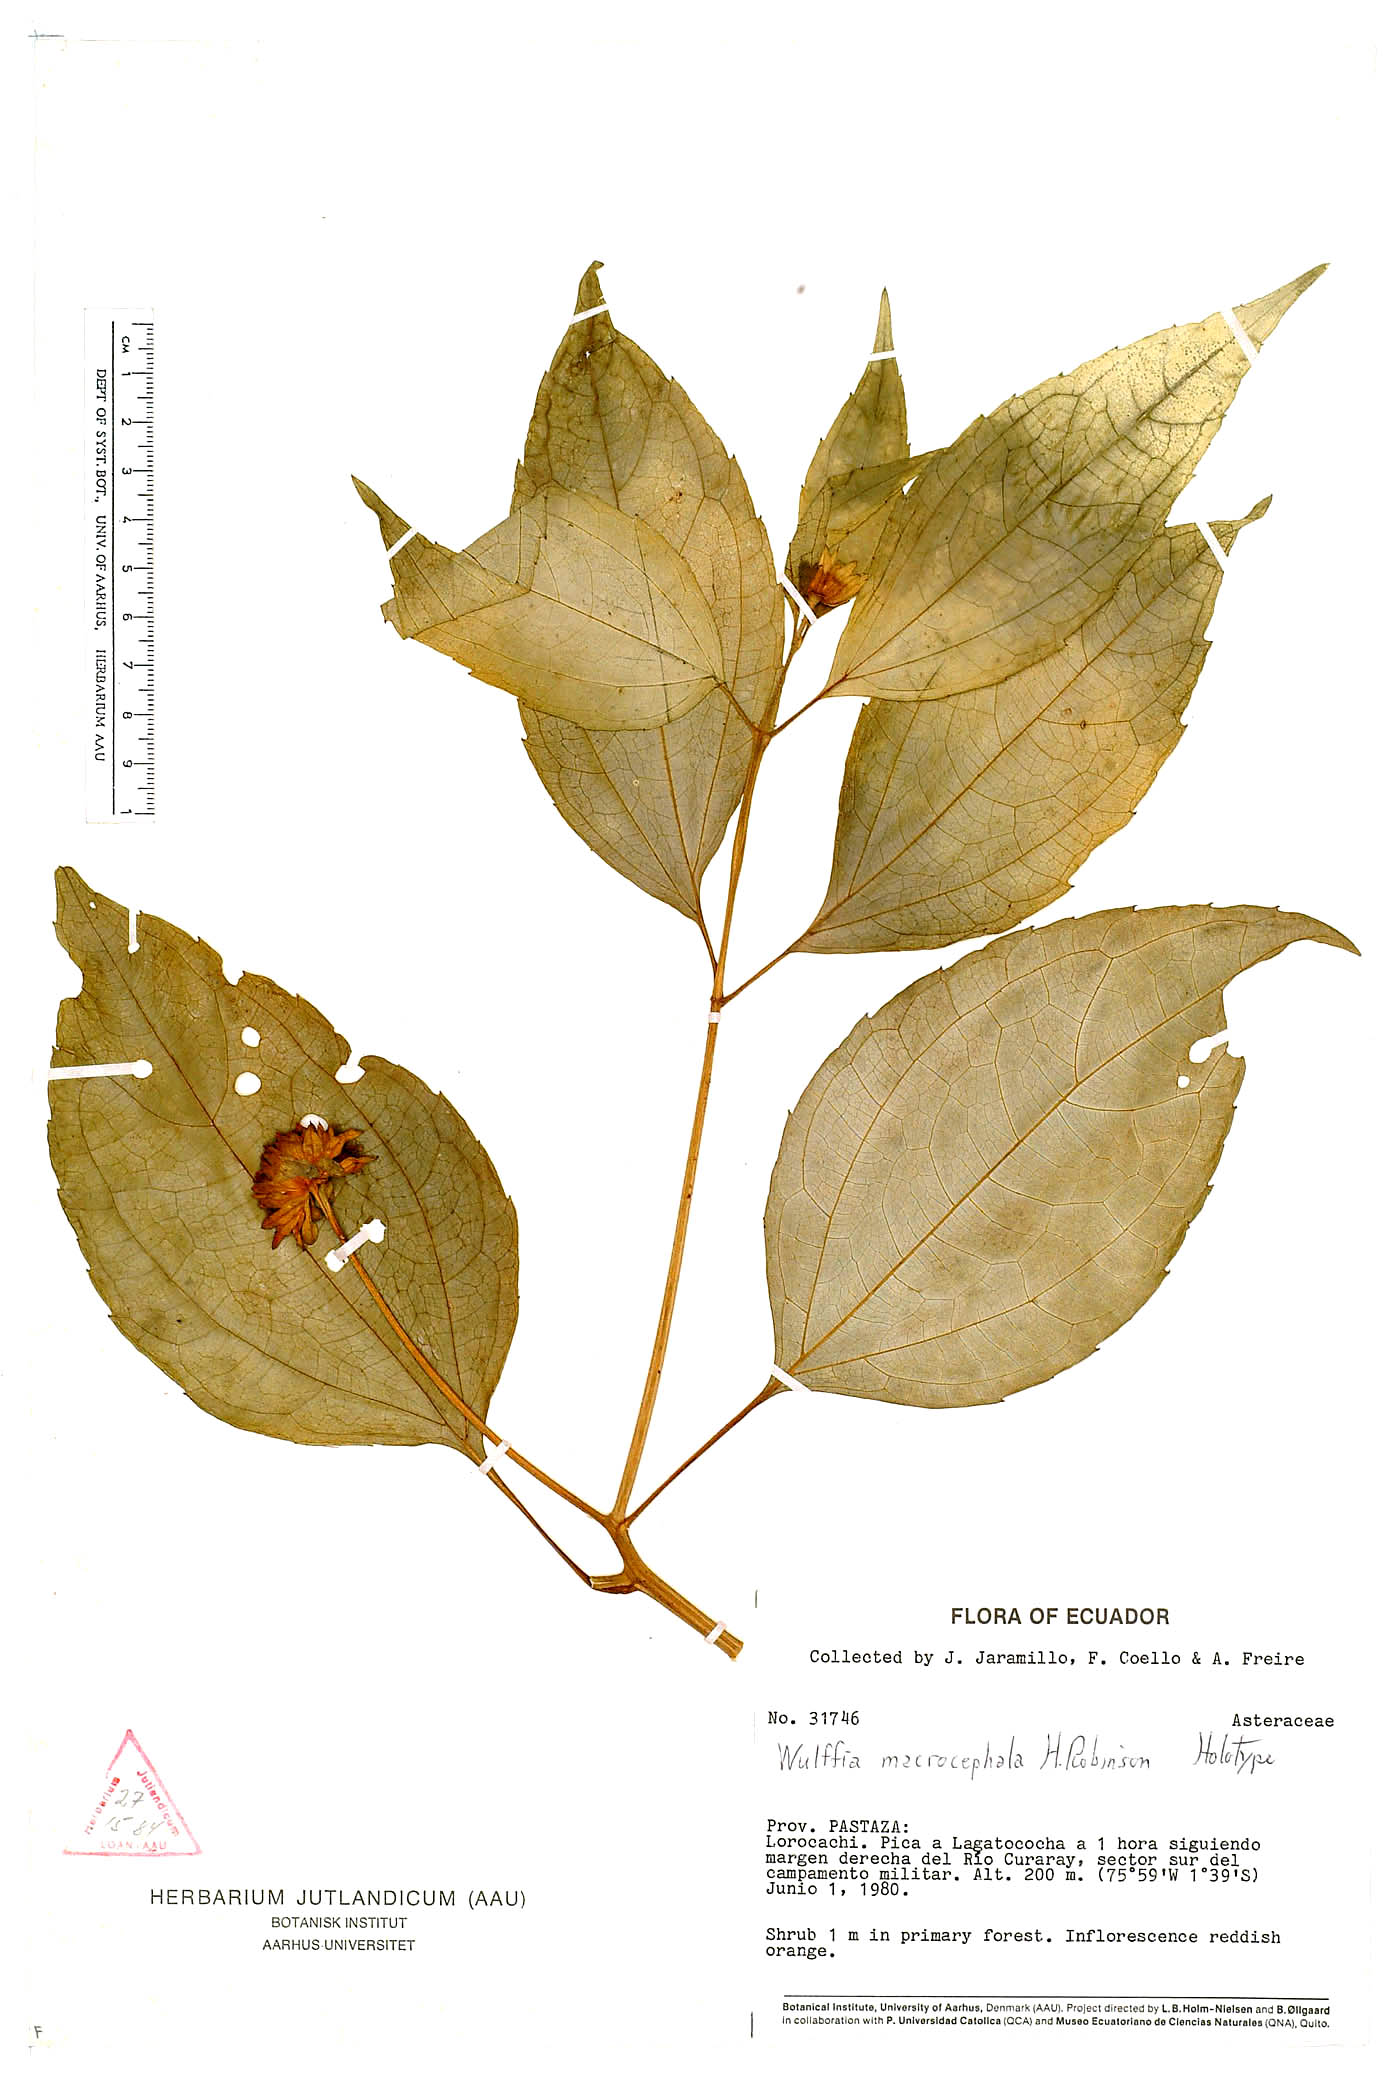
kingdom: Plantae
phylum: Tracheophyta
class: Magnoliopsida
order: Asterales
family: Asteraceae
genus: Tilesia
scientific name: Tilesia macrocephala
